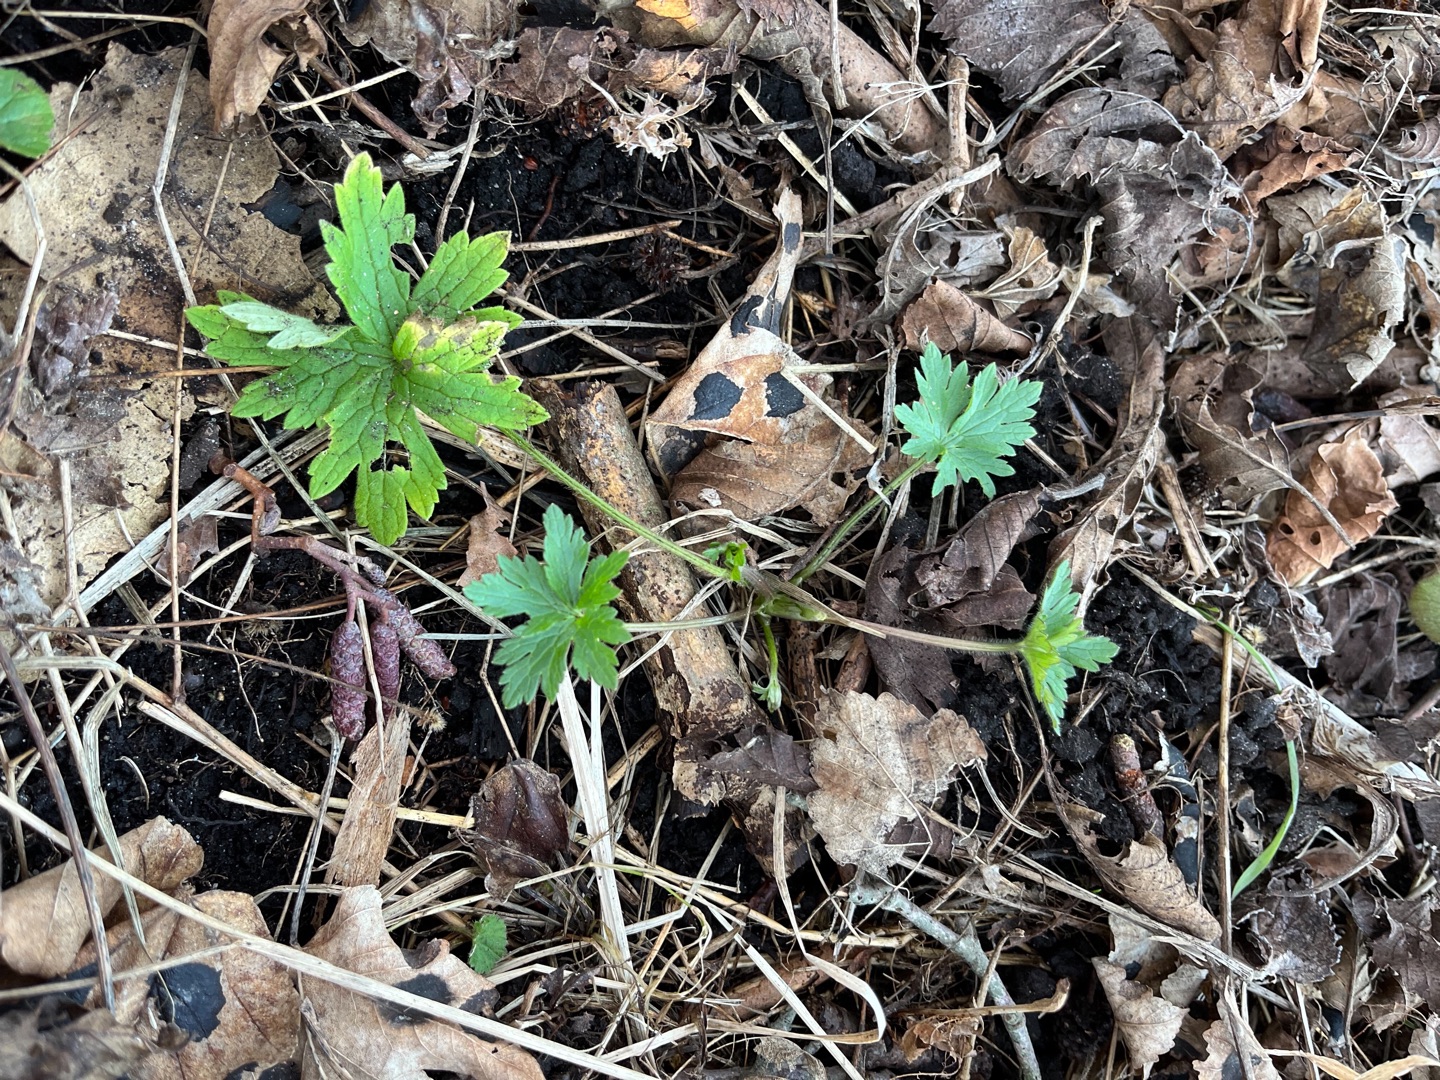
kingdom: Plantae
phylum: Tracheophyta
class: Magnoliopsida
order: Ranunculales
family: Ranunculaceae
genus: Ranunculus
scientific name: Ranunculus acris
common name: Bidende ranunkel
